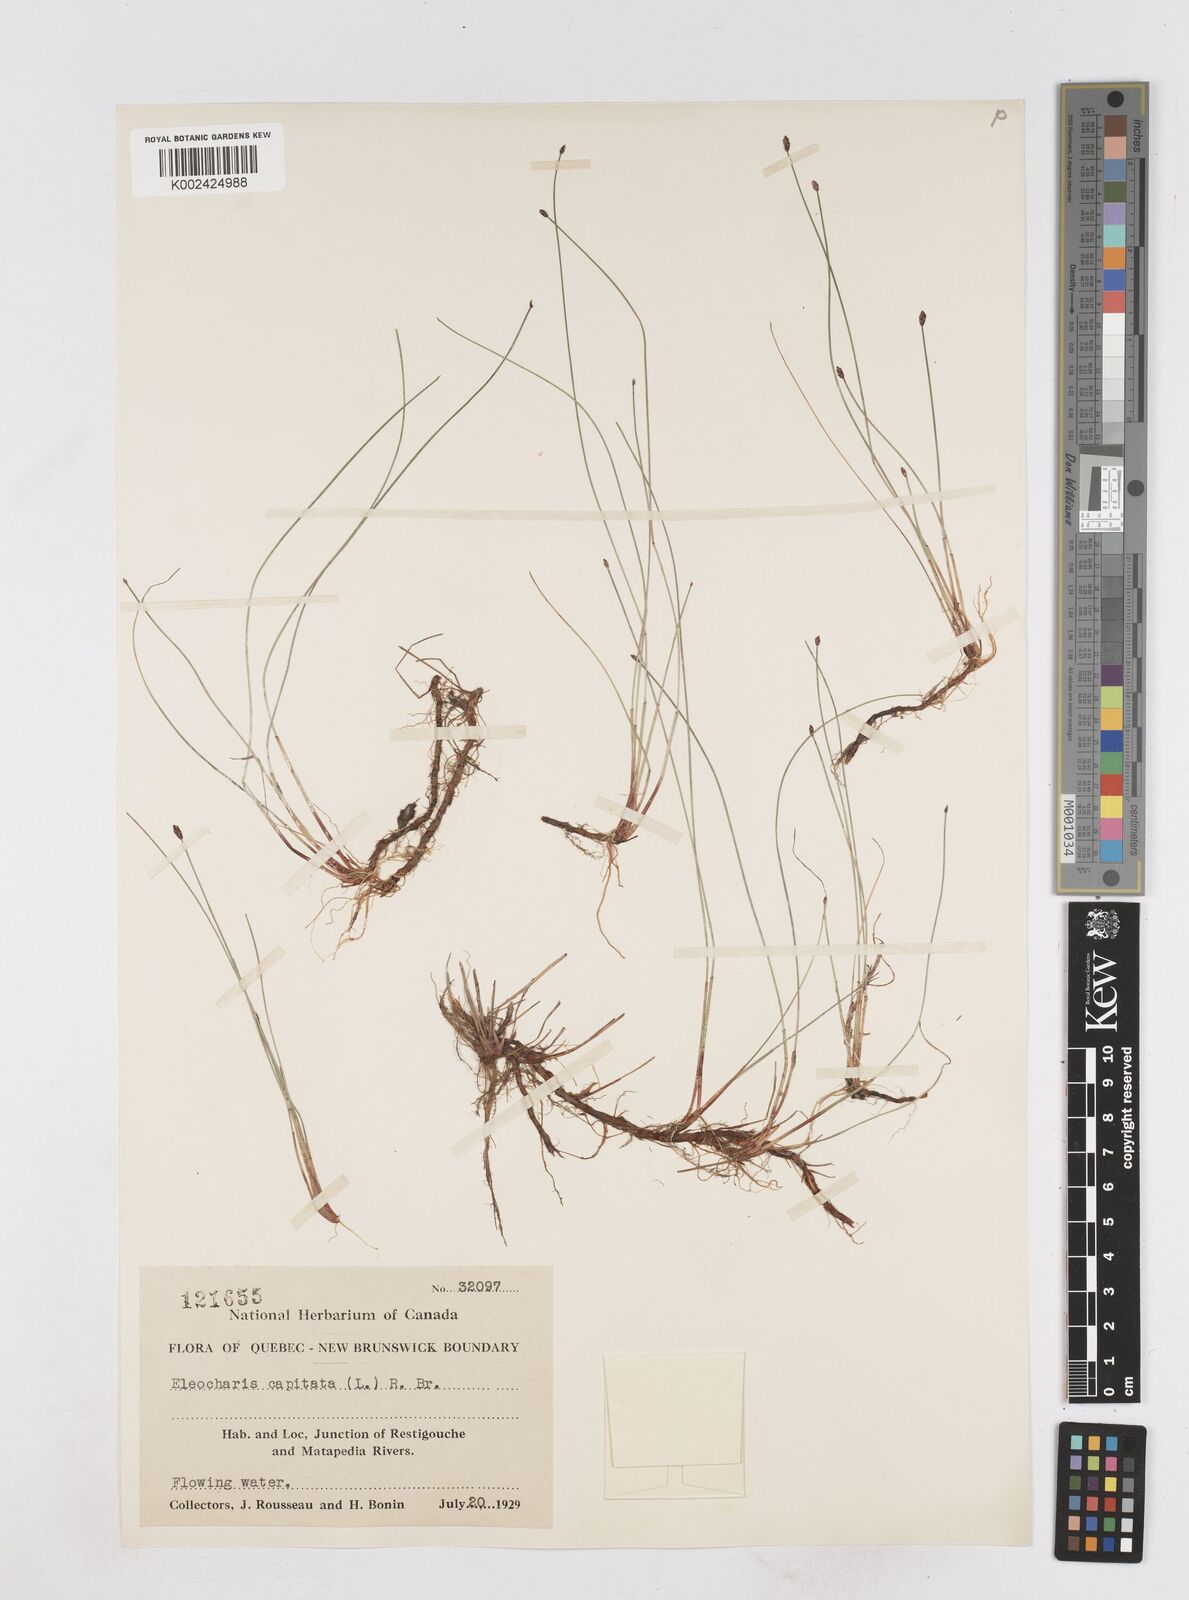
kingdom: Plantae
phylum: Tracheophyta
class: Liliopsida
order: Poales
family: Cyperaceae
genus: Eleocharis
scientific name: Eleocharis geniculata
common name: Canada spikesedge
